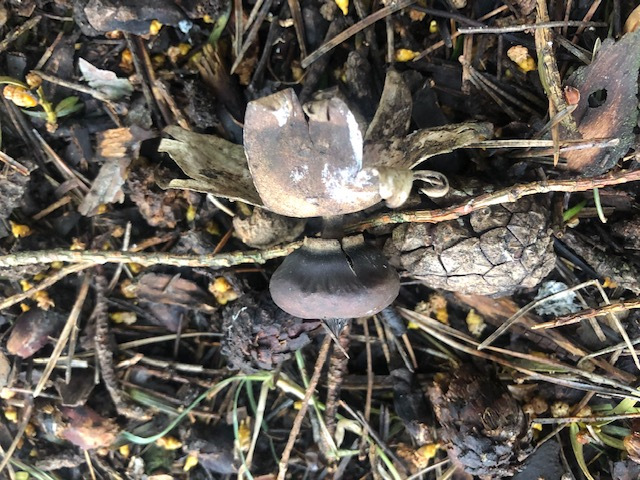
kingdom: Fungi
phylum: Basidiomycota
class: Agaricomycetes
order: Geastrales
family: Geastraceae
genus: Geastrum
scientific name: Geastrum striatum
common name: krave-stjernebold
